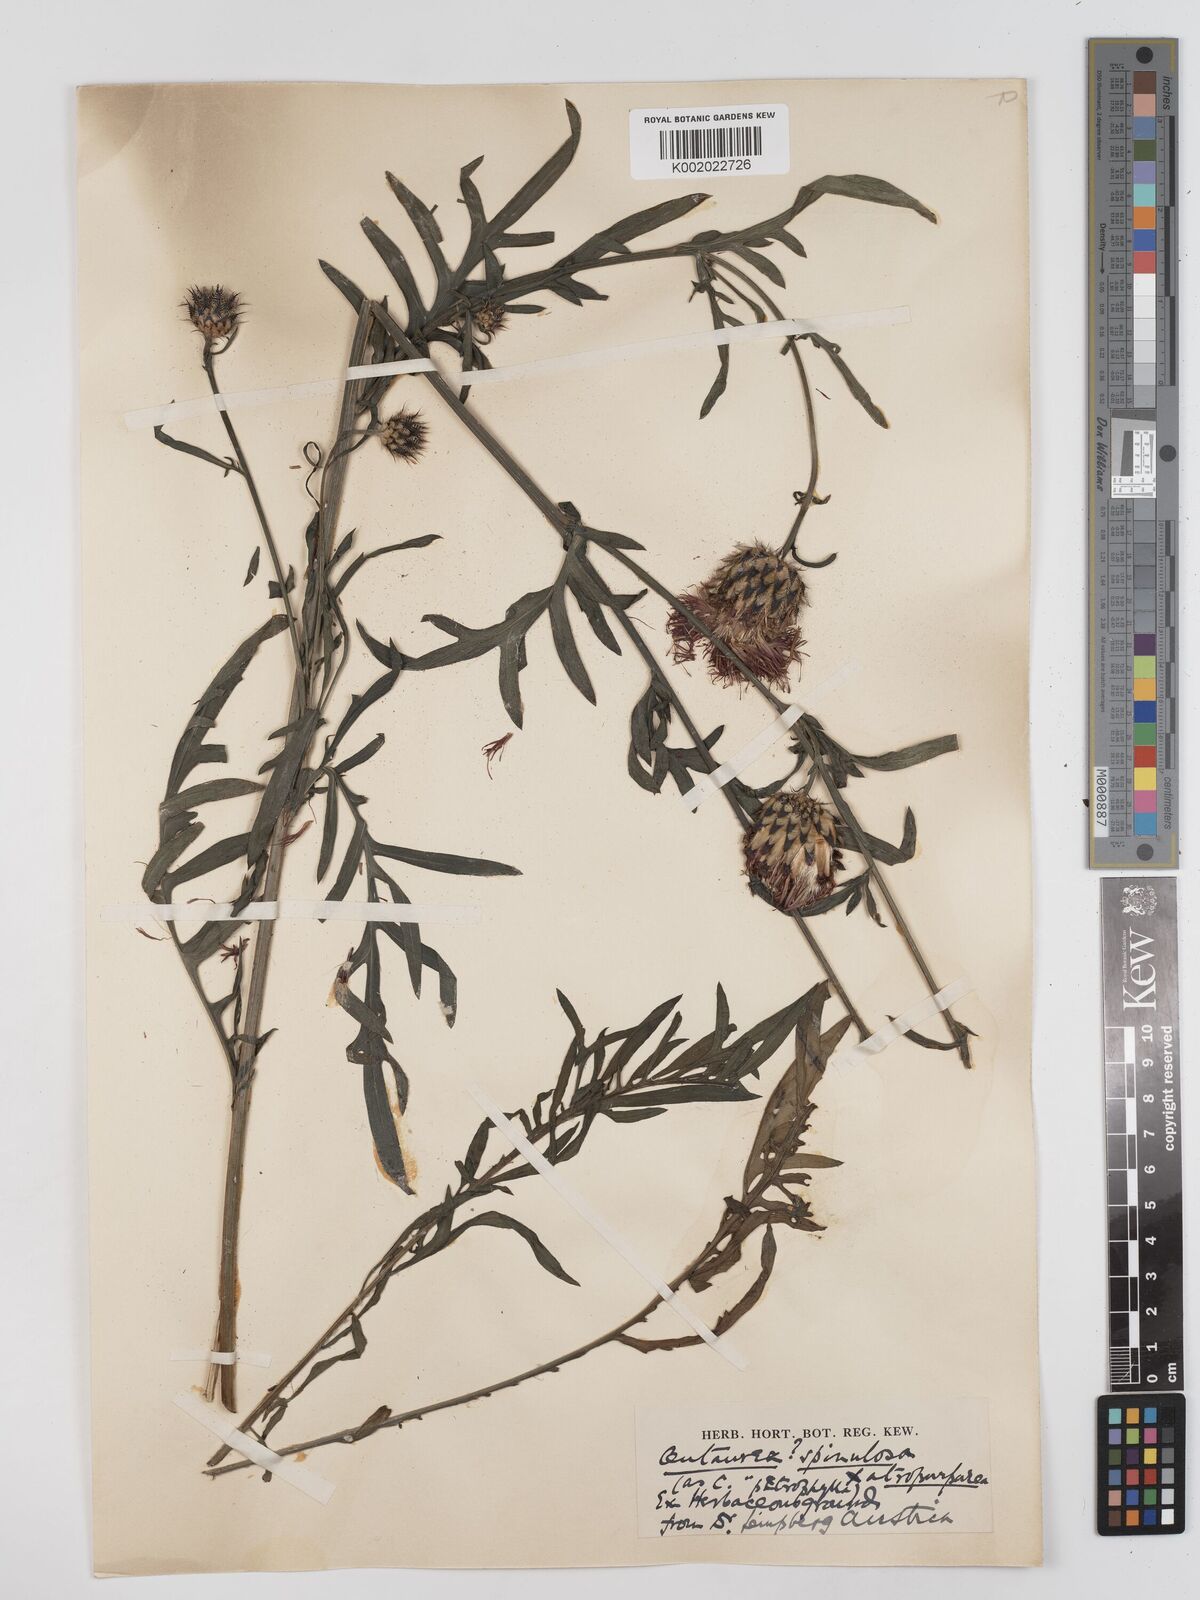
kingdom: Plantae
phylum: Tracheophyta
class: Magnoliopsida
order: Asterales
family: Asteraceae
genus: Centaurea
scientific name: Centaurea
